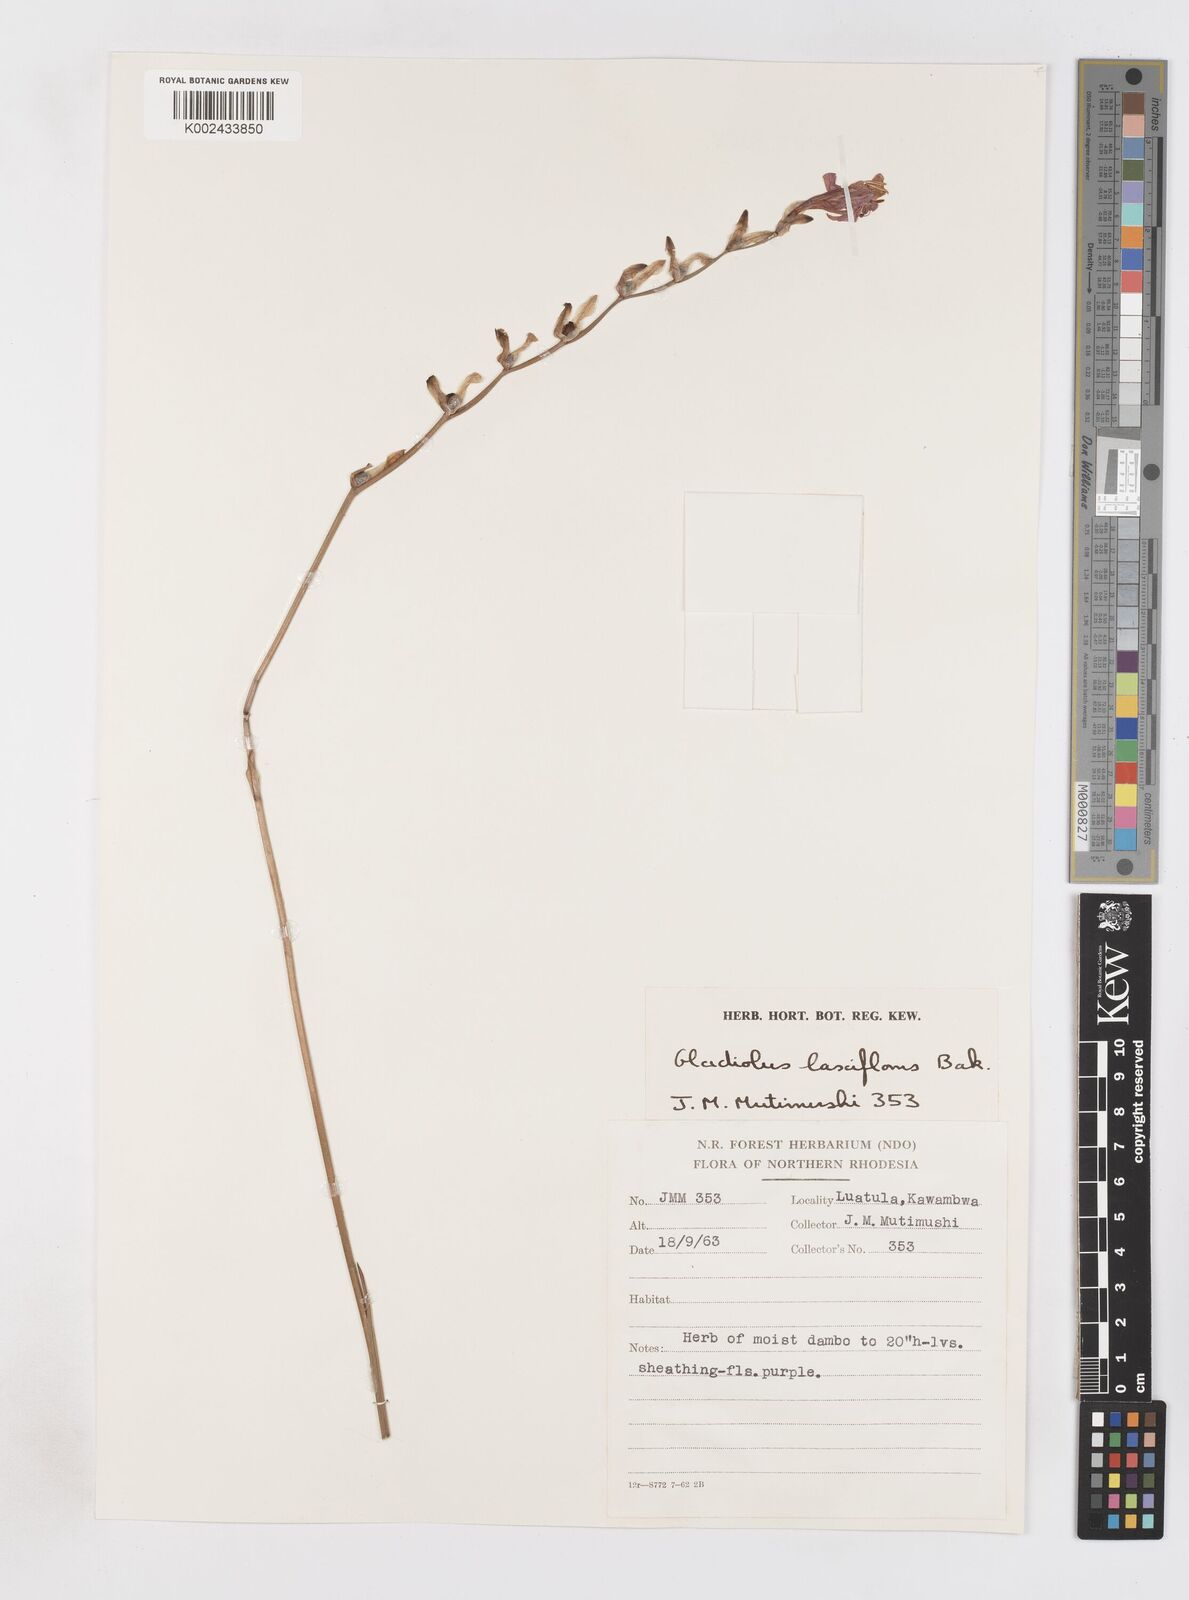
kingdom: Plantae
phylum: Tracheophyta
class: Liliopsida
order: Asparagales
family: Iridaceae
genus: Gladiolus
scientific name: Gladiolus laxiflorus
